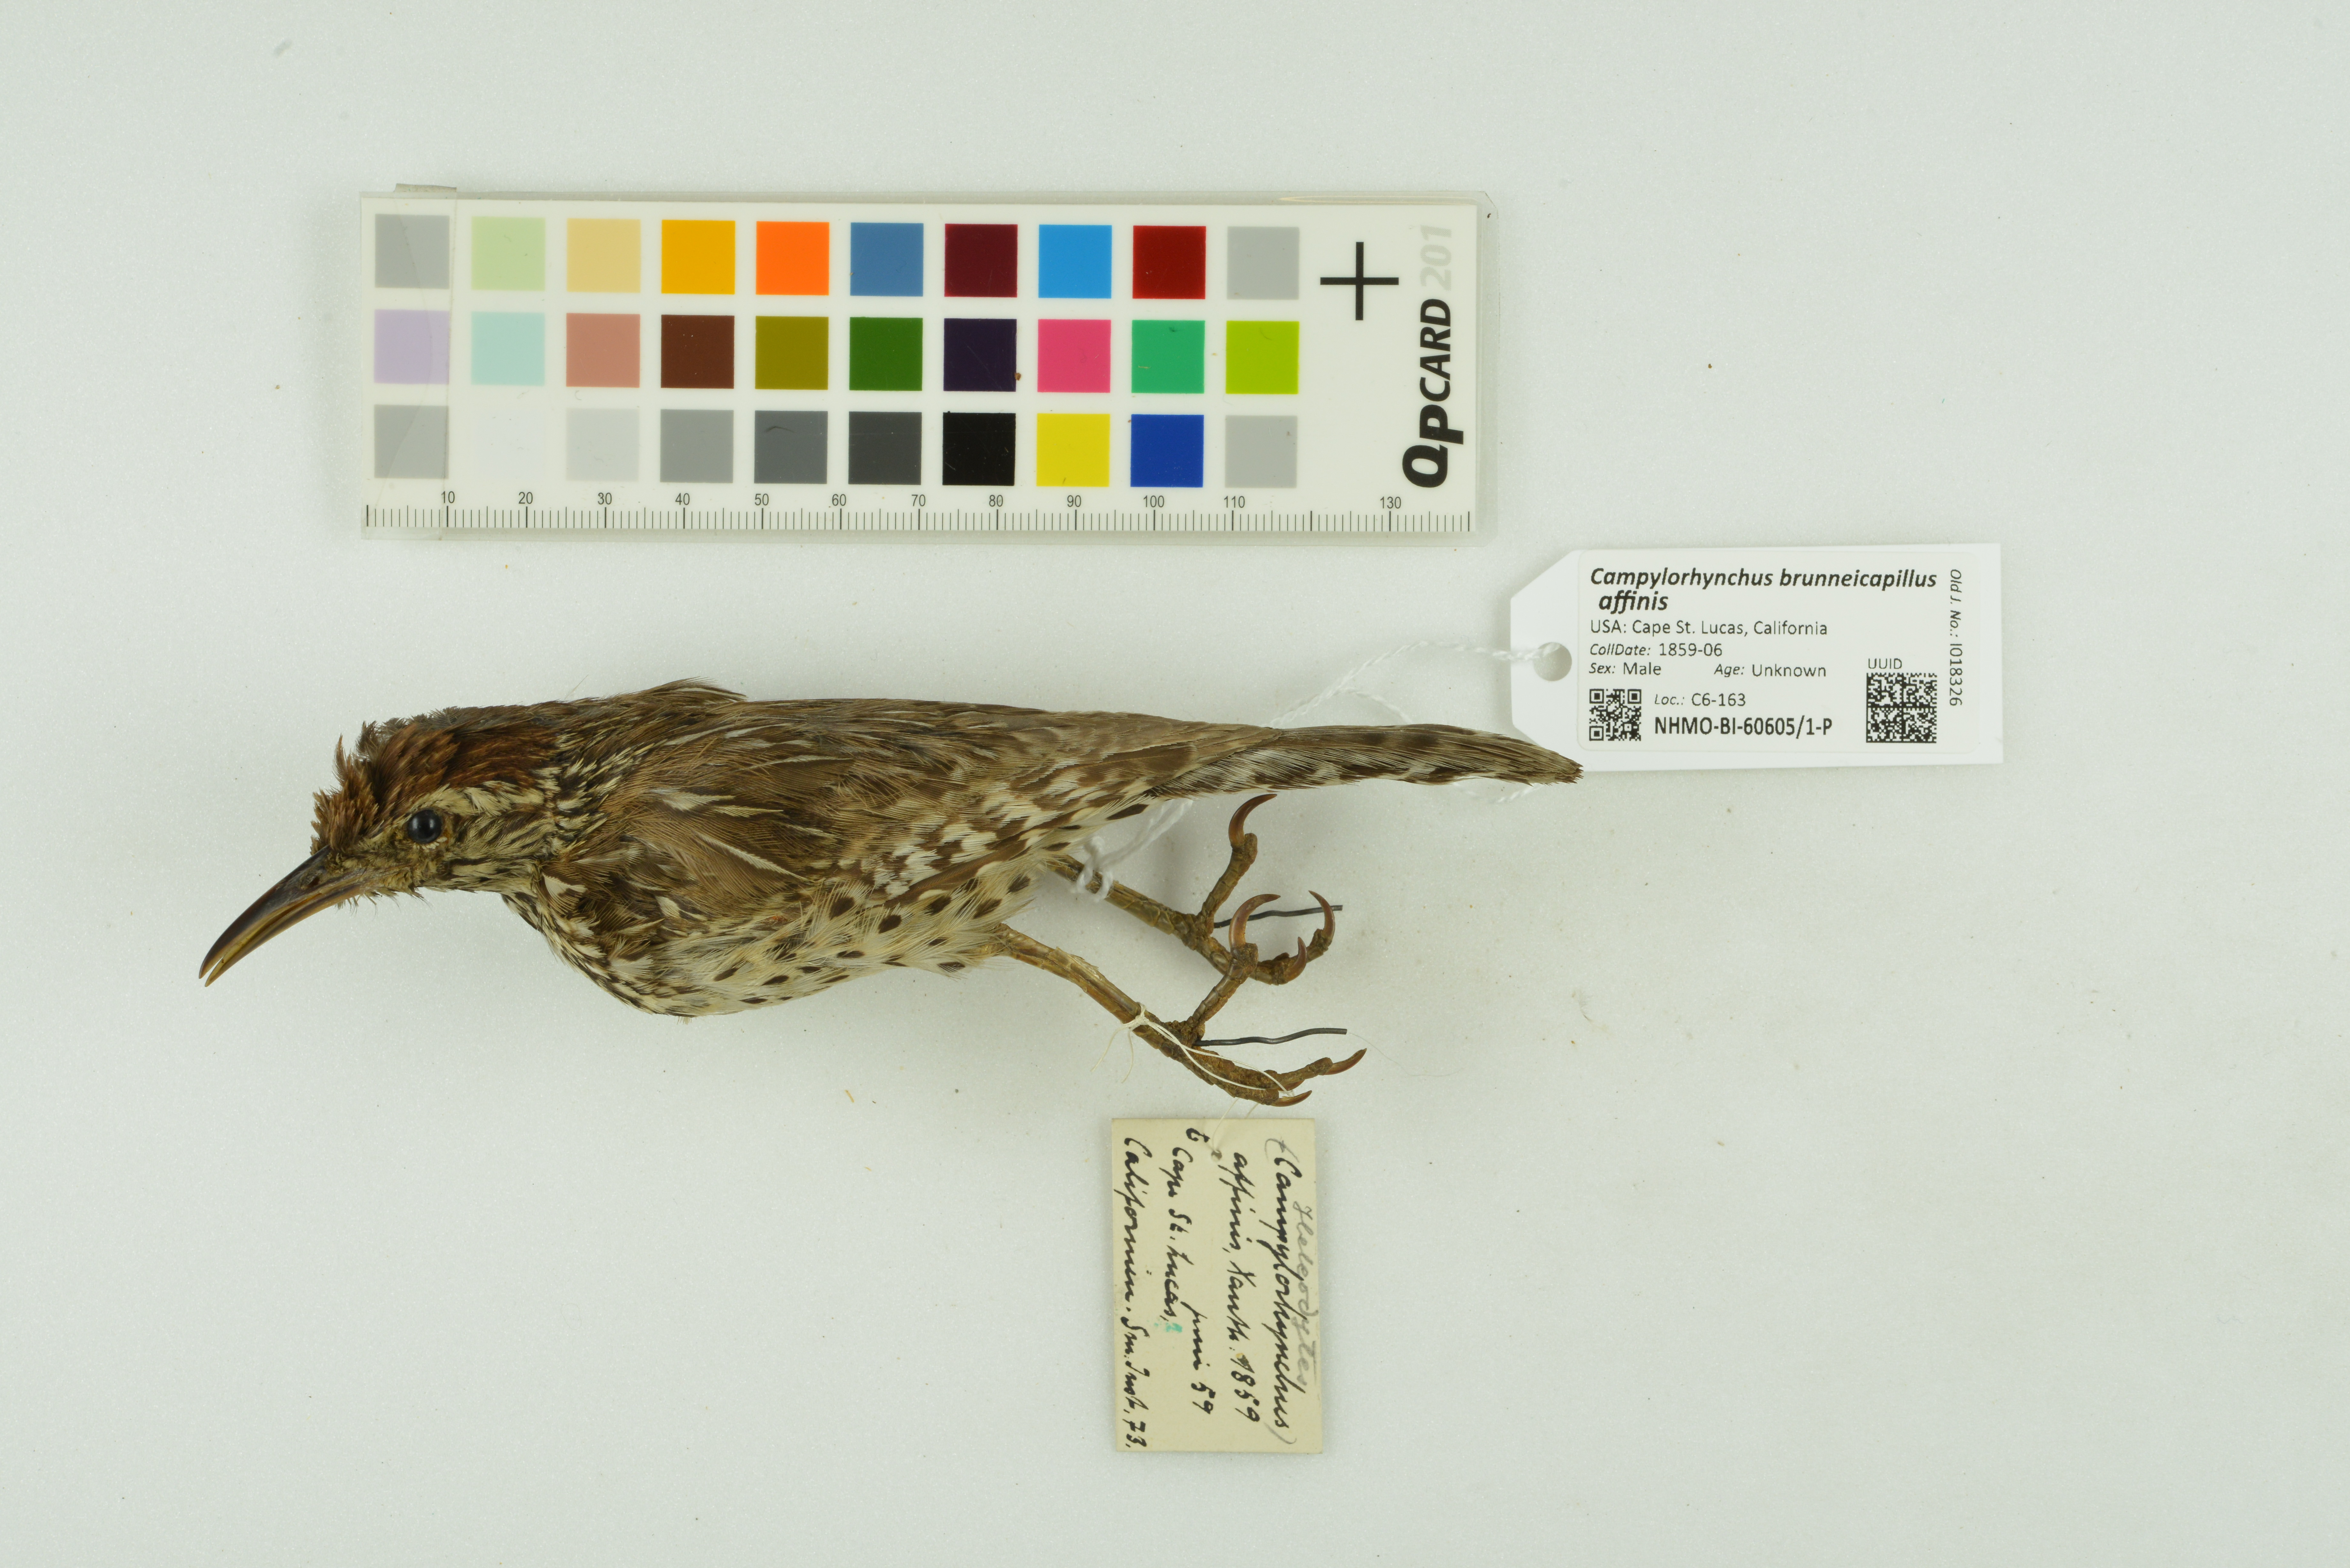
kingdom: Animalia
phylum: Chordata
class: Aves
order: Passeriformes
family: Troglodytidae
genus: Campylorhynchus
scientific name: Campylorhynchus brunneicapillus
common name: Cactus wren
